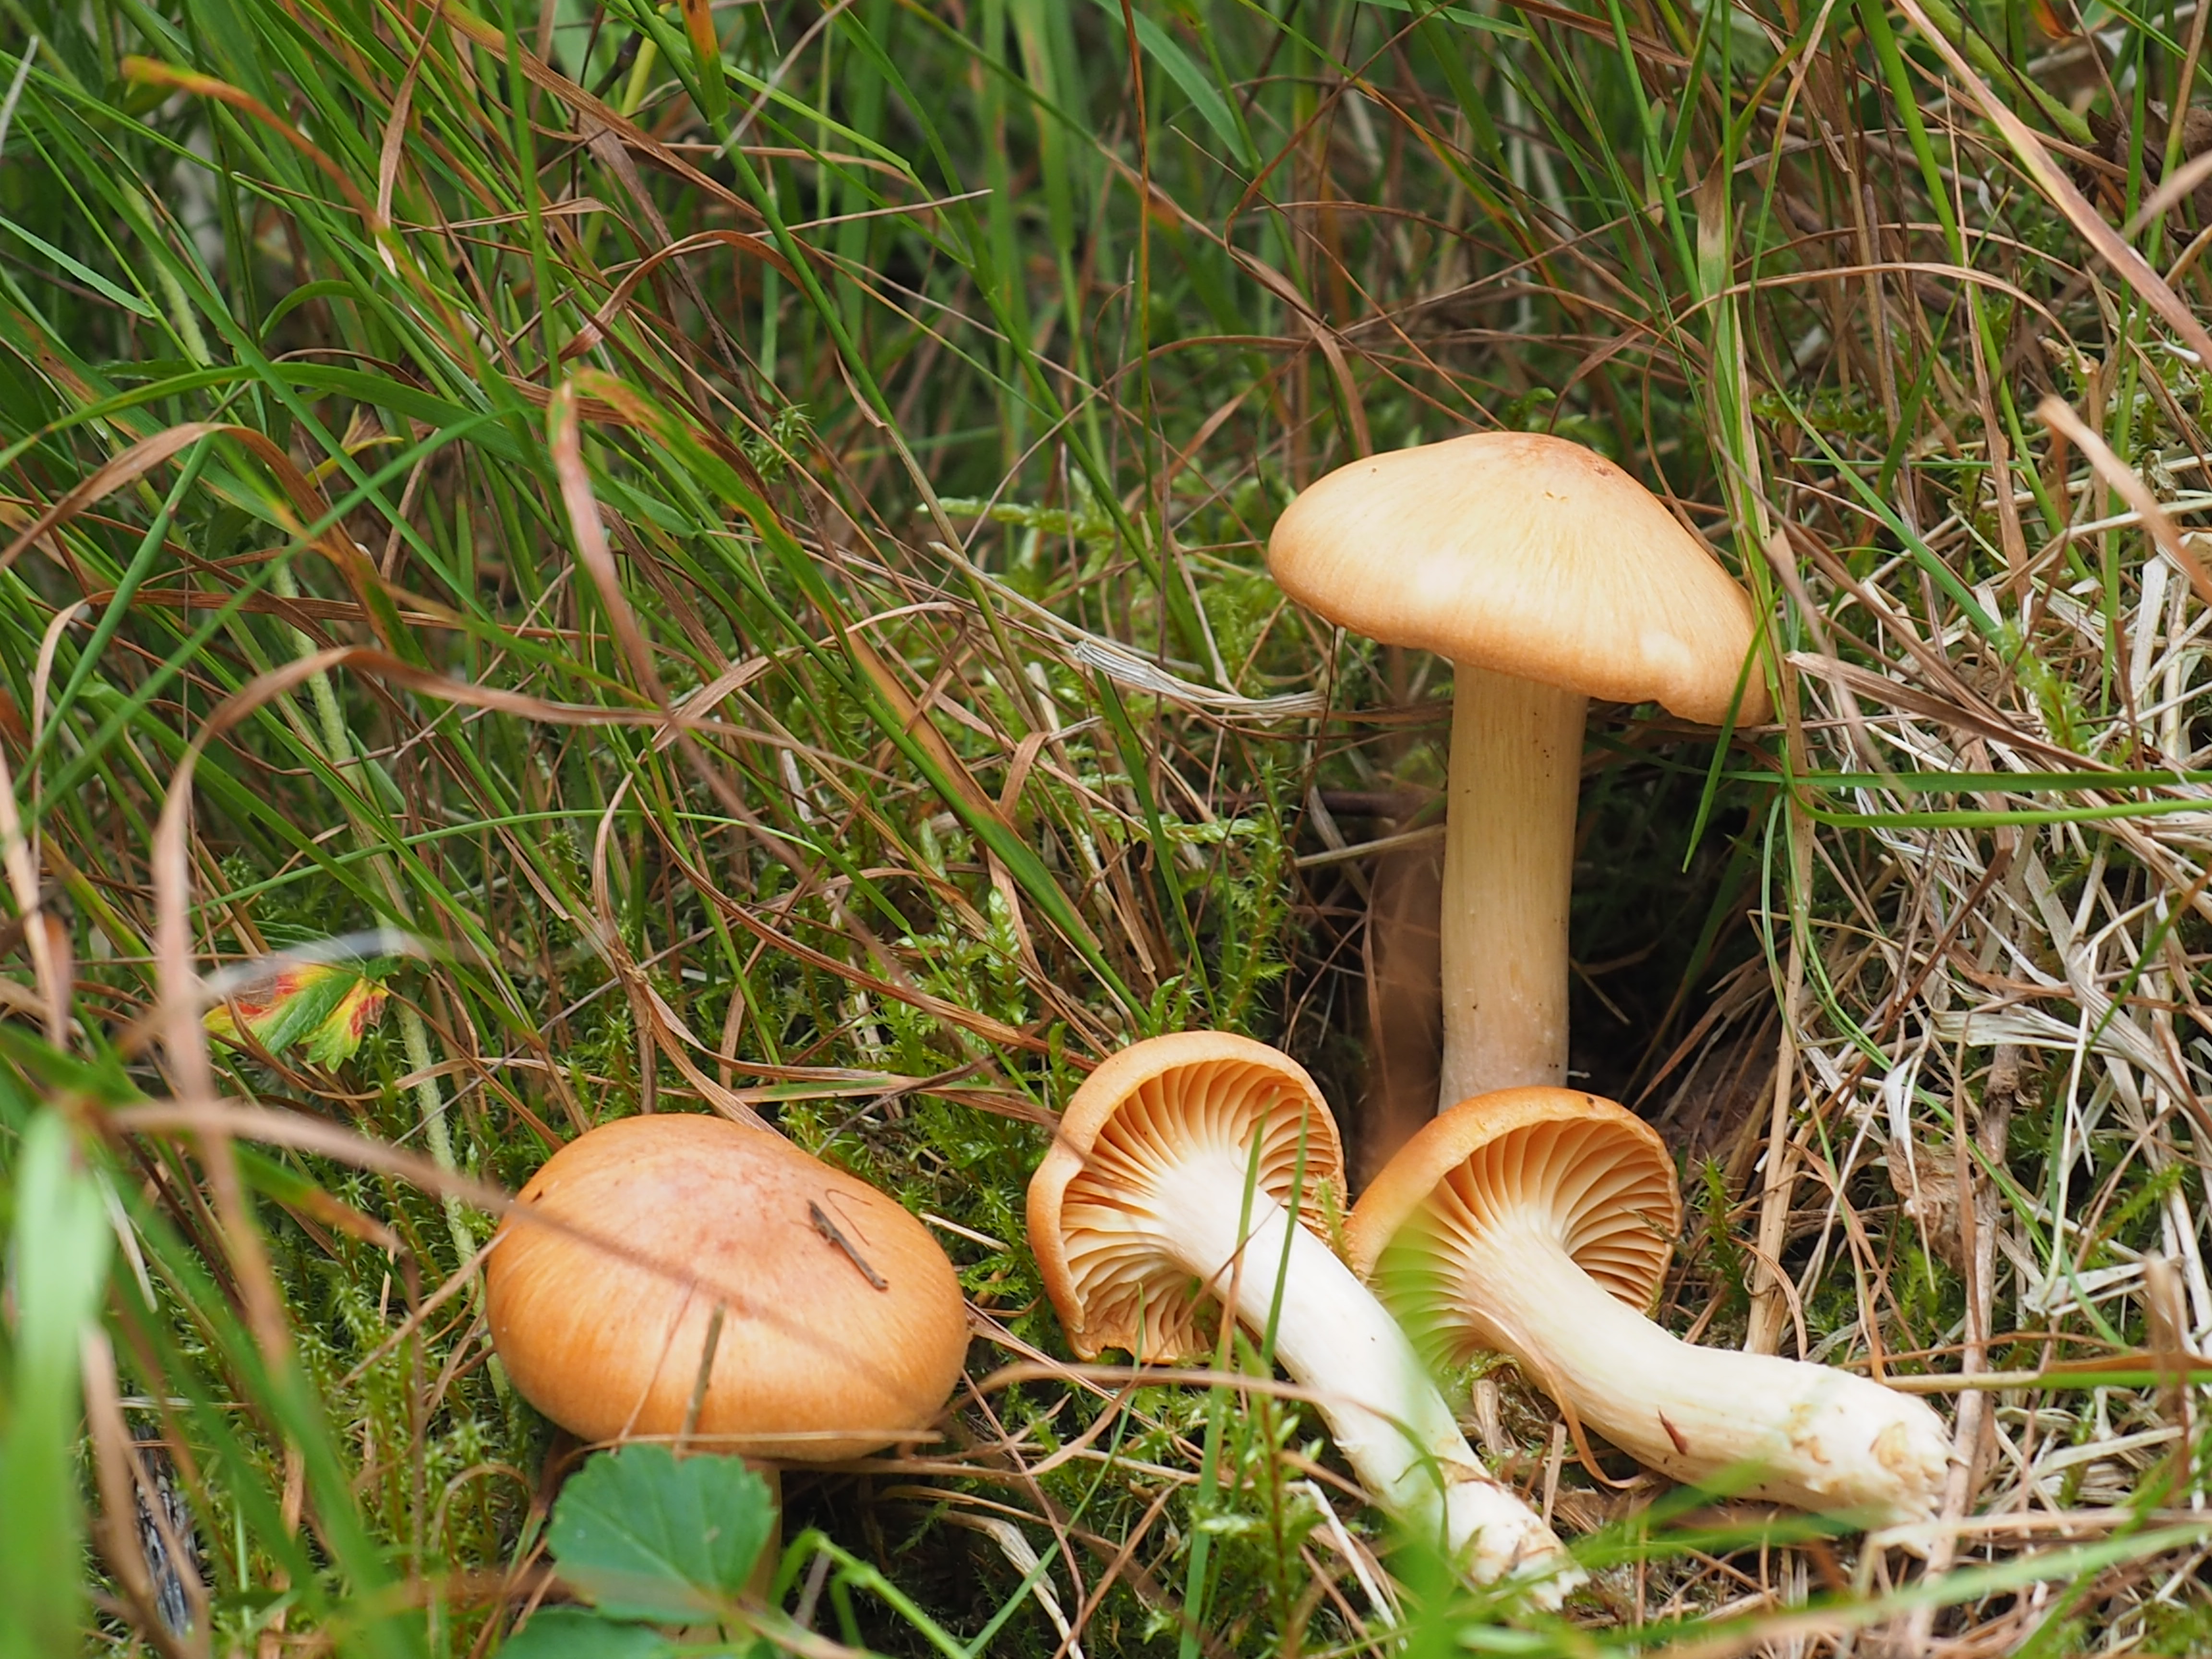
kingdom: Fungi
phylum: Basidiomycota
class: Agaricomycetes
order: Agaricales
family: Hygrophoraceae
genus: Cuphophyllus
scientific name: Cuphophyllus pratensis
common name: Meadow waxcap
